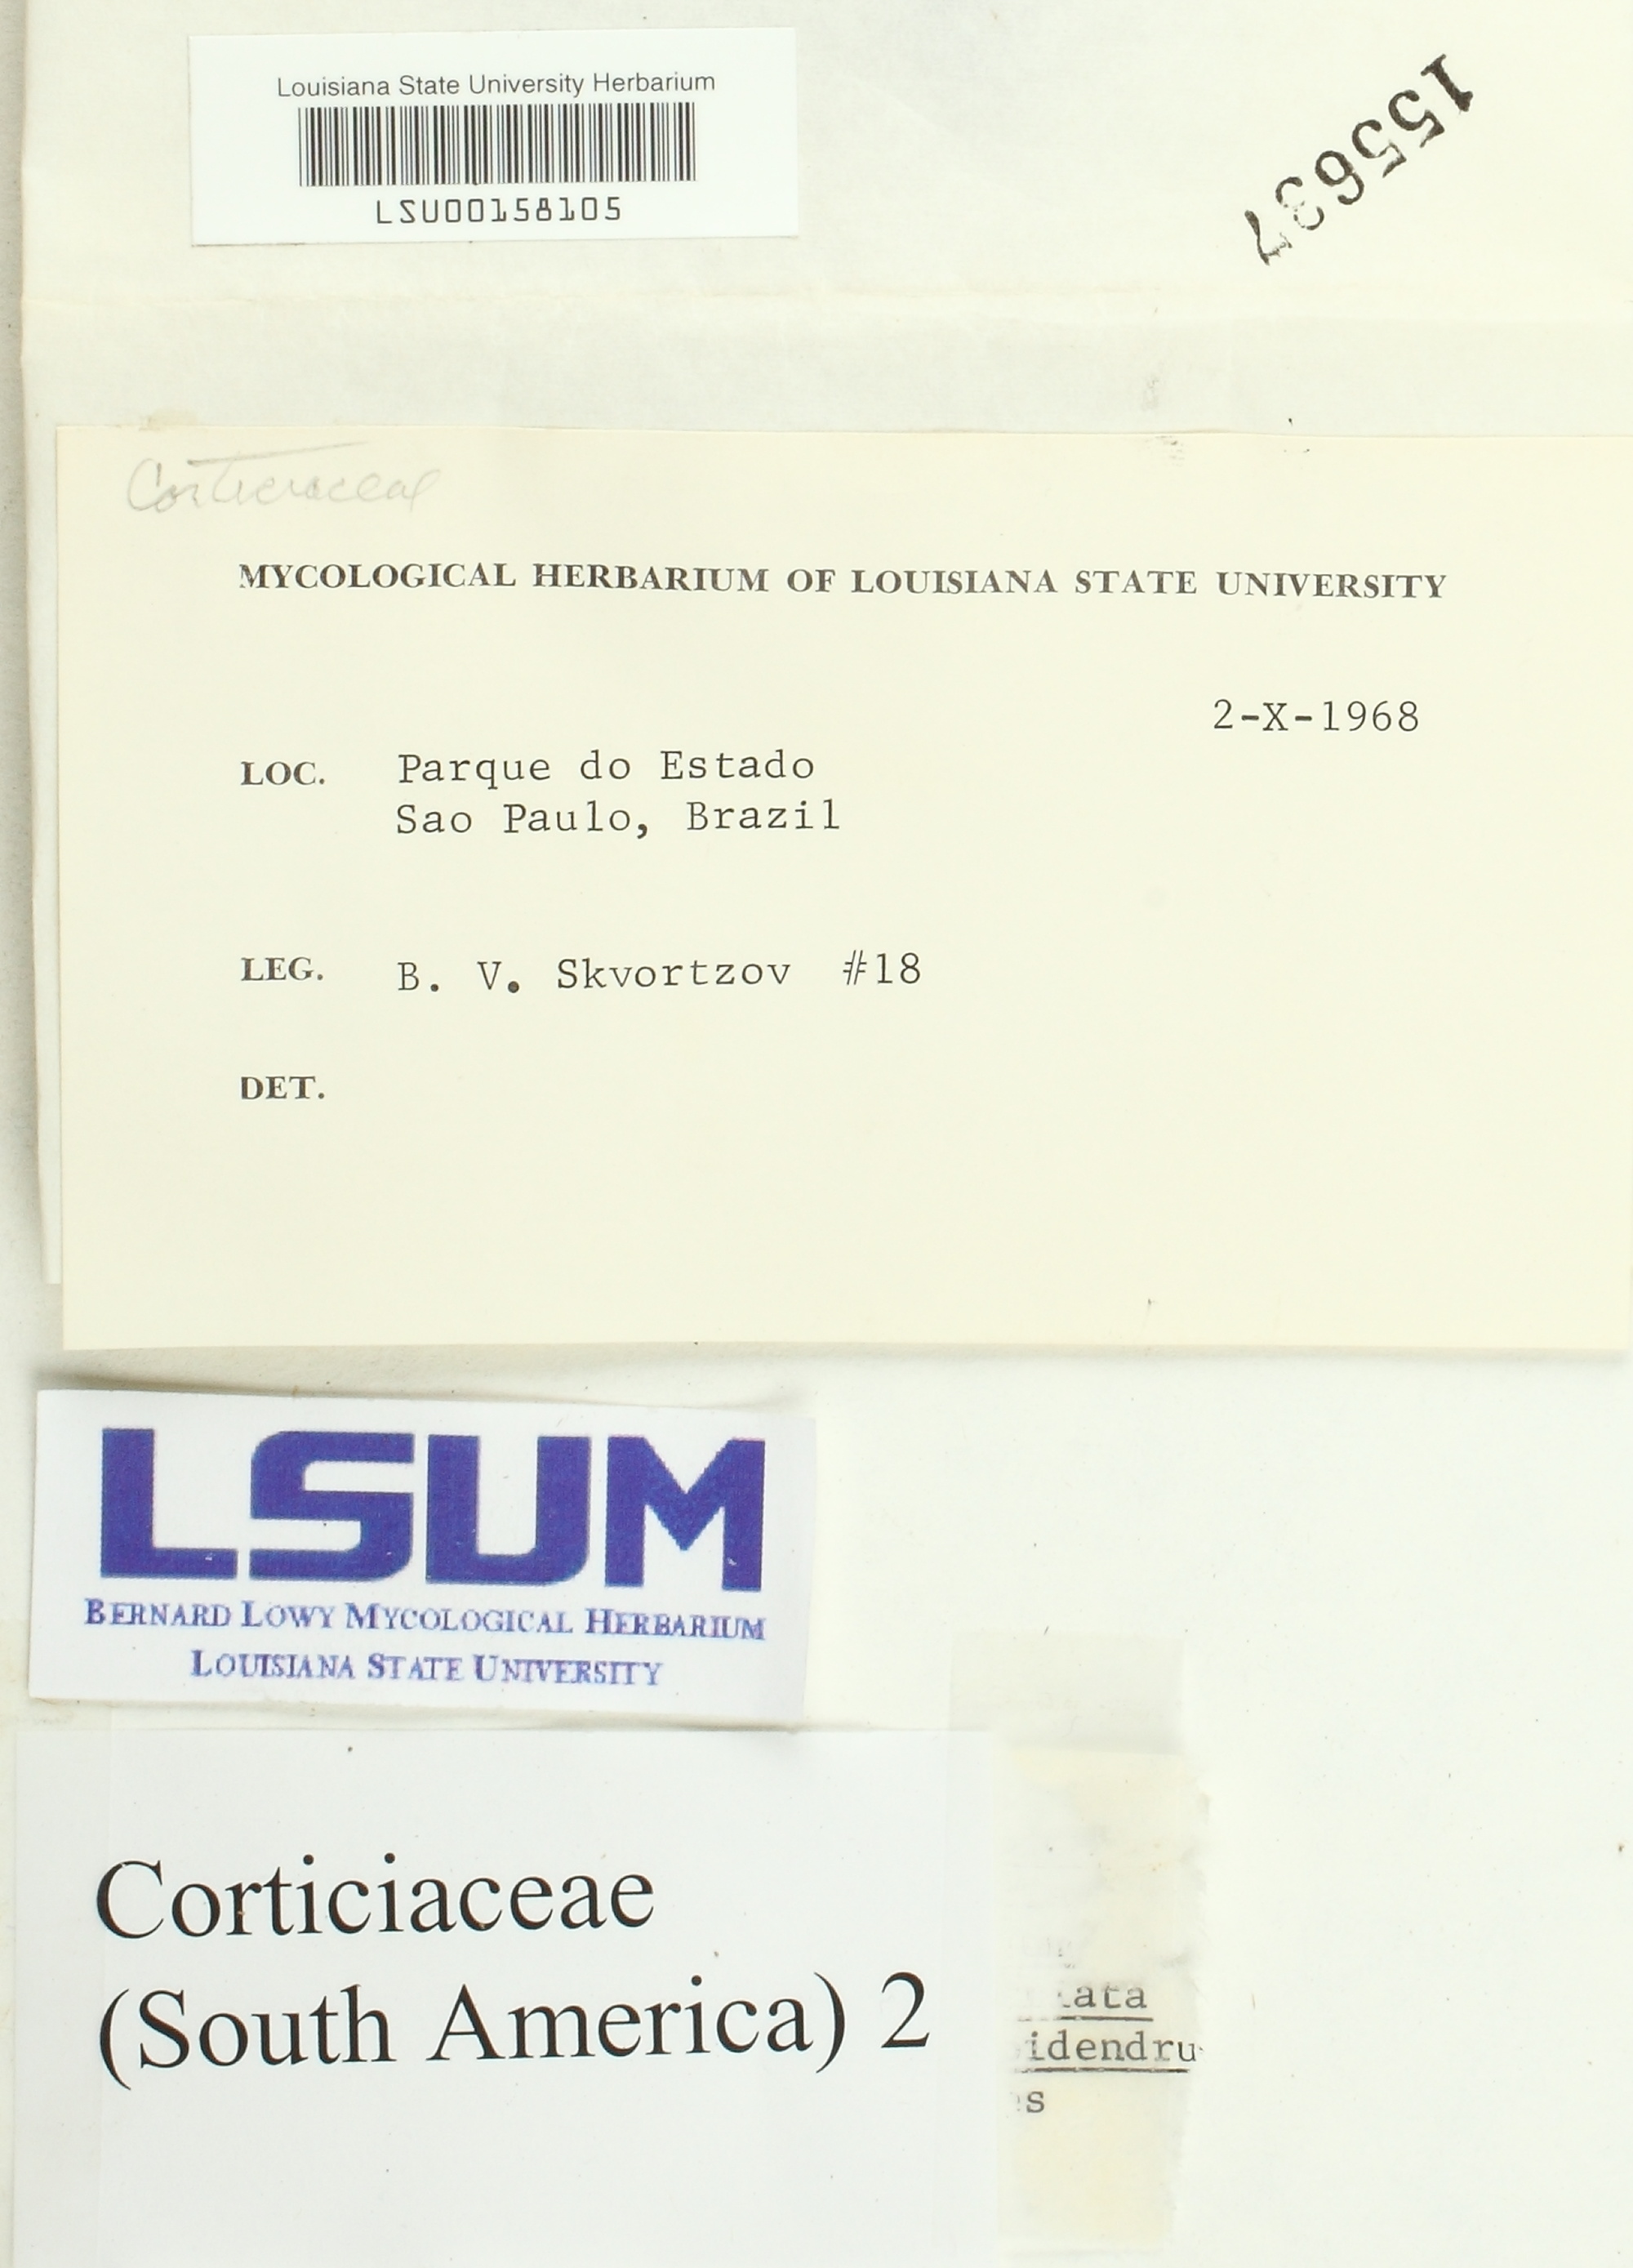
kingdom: Fungi
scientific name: Fungi
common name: Fungi
